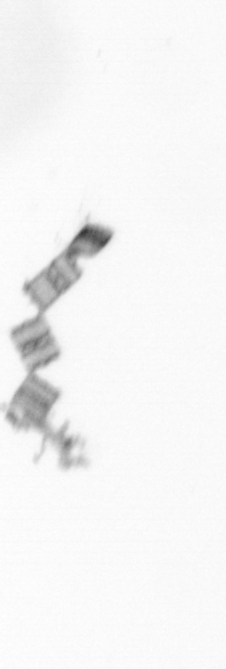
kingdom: Chromista
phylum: Ochrophyta
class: Bacillariophyceae
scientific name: Bacillariophyceae
